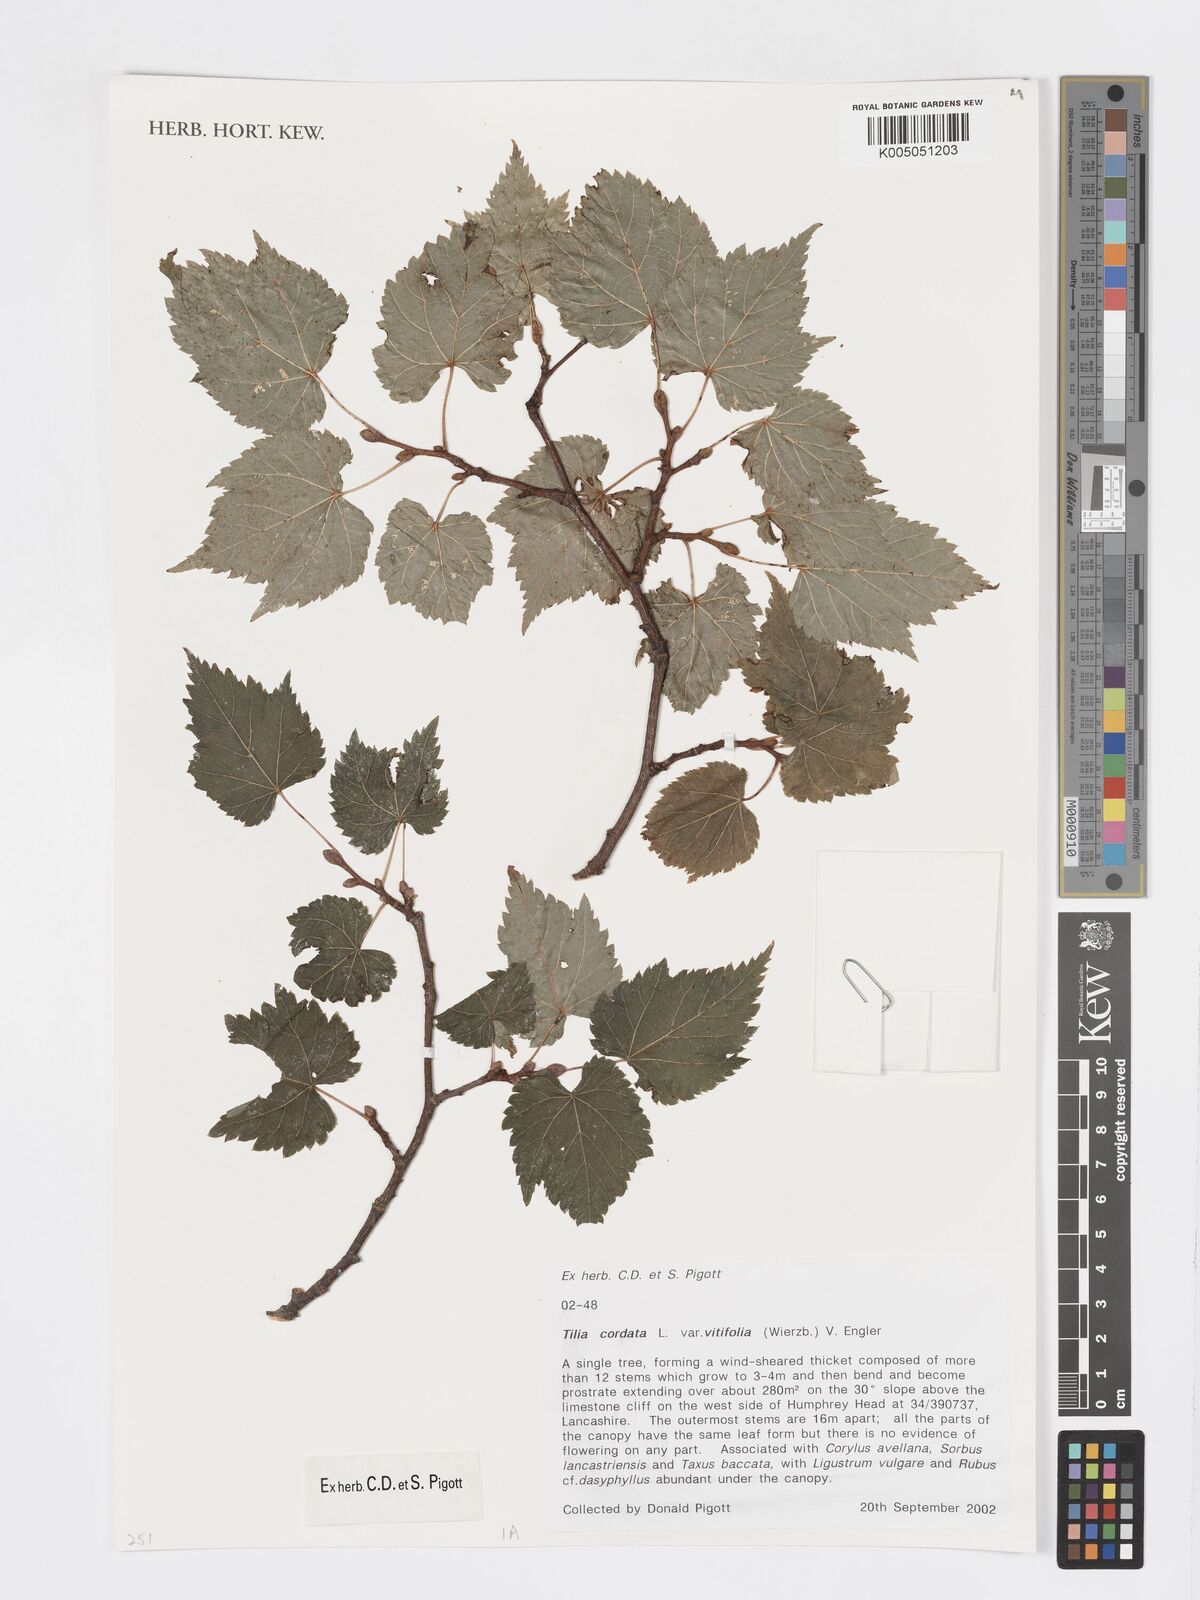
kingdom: Plantae
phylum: Tracheophyta
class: Magnoliopsida
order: Malvales
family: Malvaceae
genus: Tilia
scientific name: Tilia cordata
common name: Small-leaved lime
